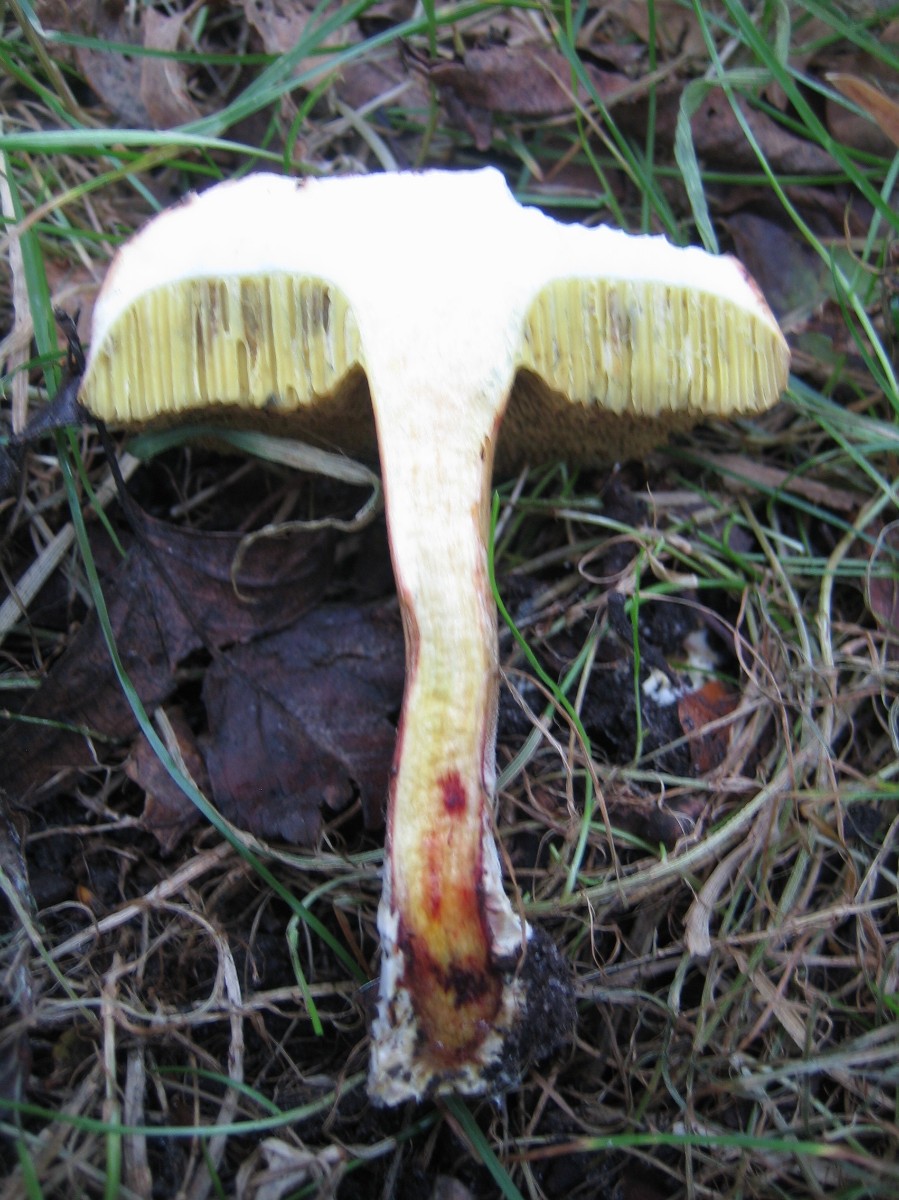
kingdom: Fungi
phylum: Basidiomycota
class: Agaricomycetes
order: Boletales
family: Boletaceae
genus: Xerocomellus
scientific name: Xerocomellus cisalpinus
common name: finsprukken rørhat
